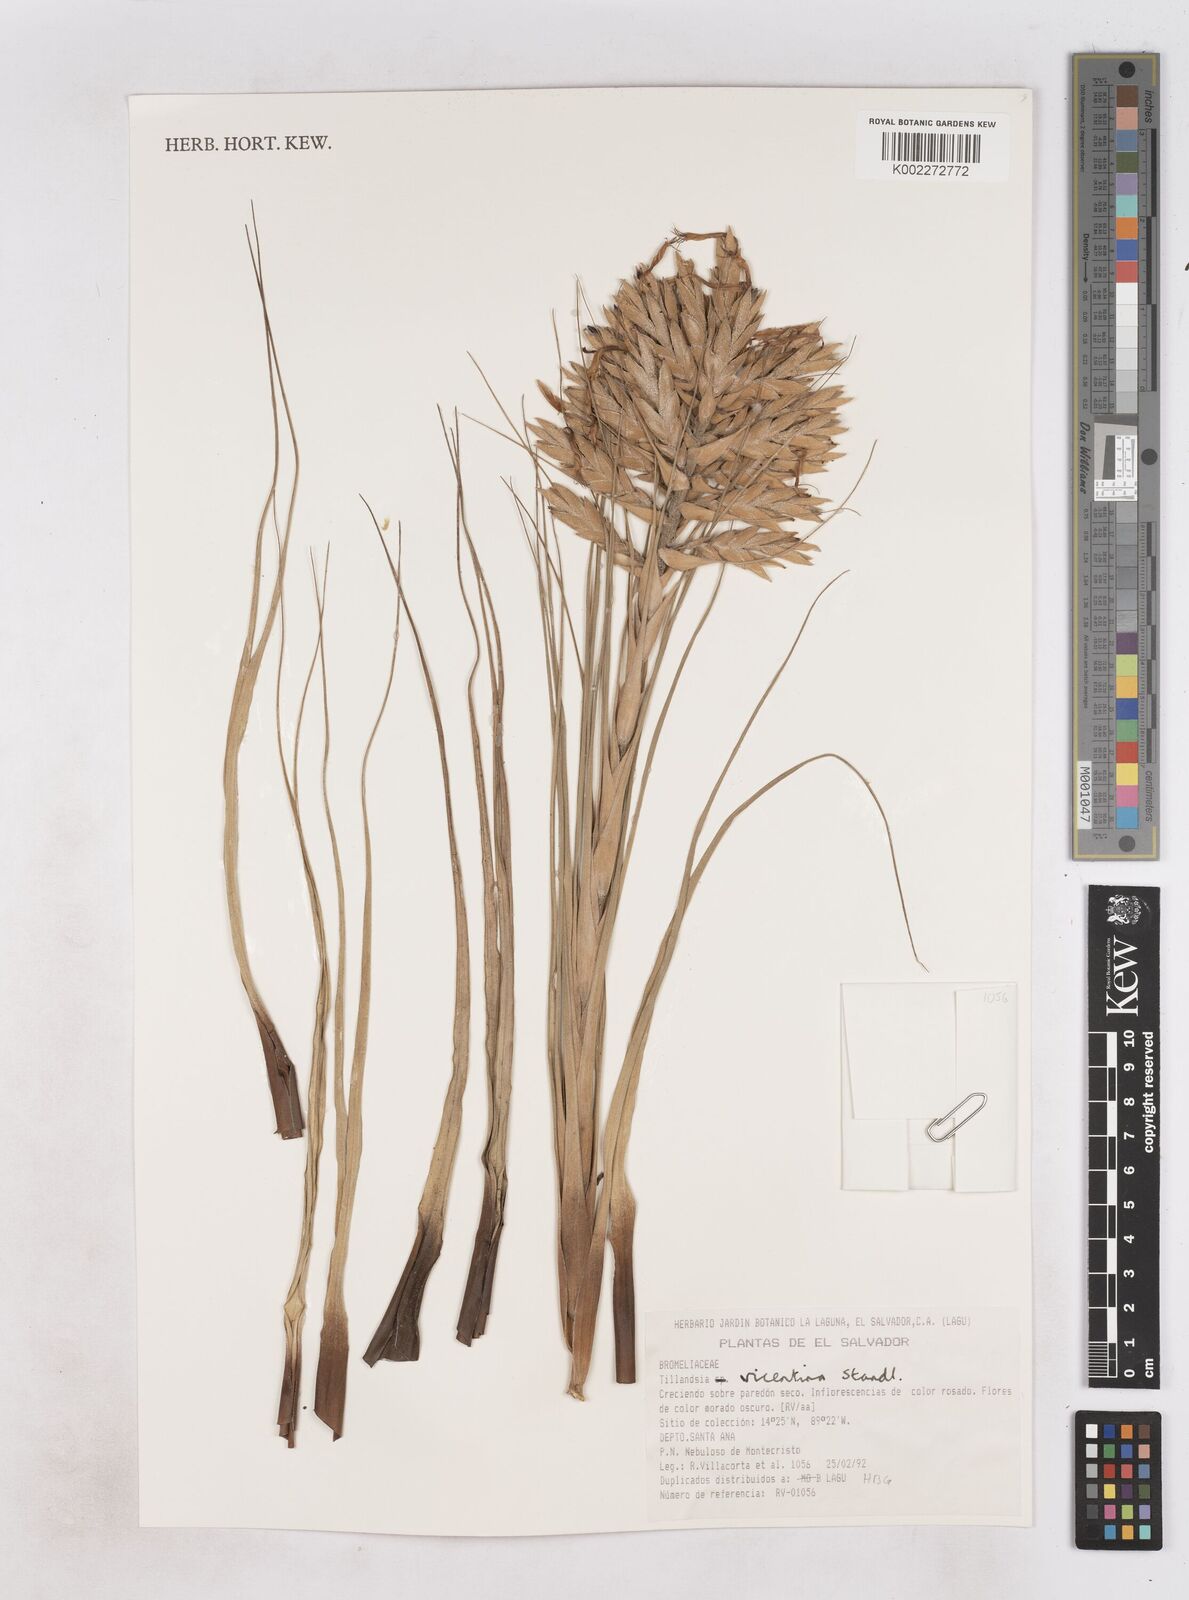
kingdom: Plantae
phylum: Tracheophyta
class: Liliopsida
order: Poales
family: Bromeliaceae
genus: Tillandsia
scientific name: Tillandsia vicentina
